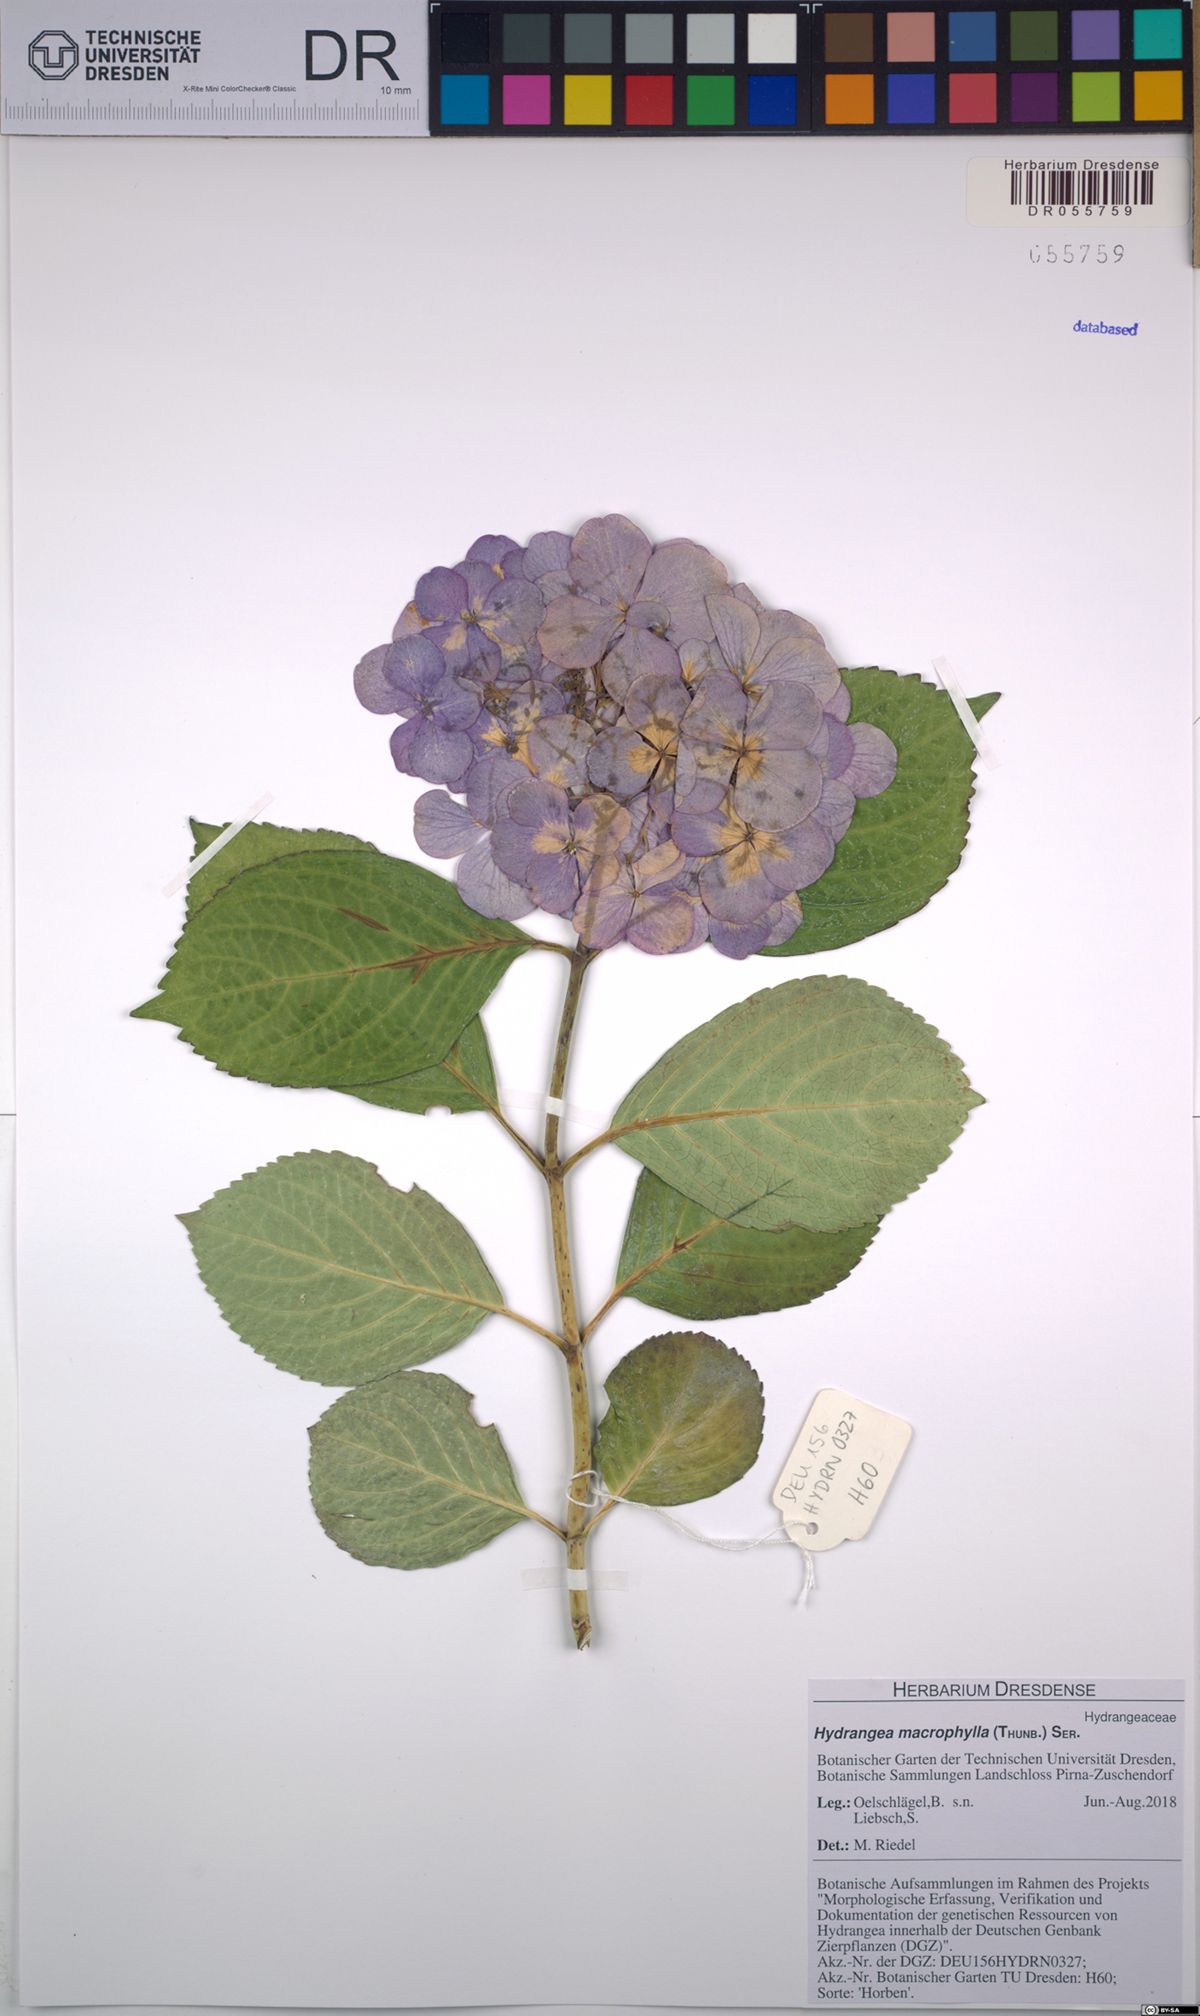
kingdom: Plantae
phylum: Tracheophyta
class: Magnoliopsida
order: Cornales
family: Hydrangeaceae
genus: Hydrangea
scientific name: Hydrangea macrophylla
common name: Hydrangea
